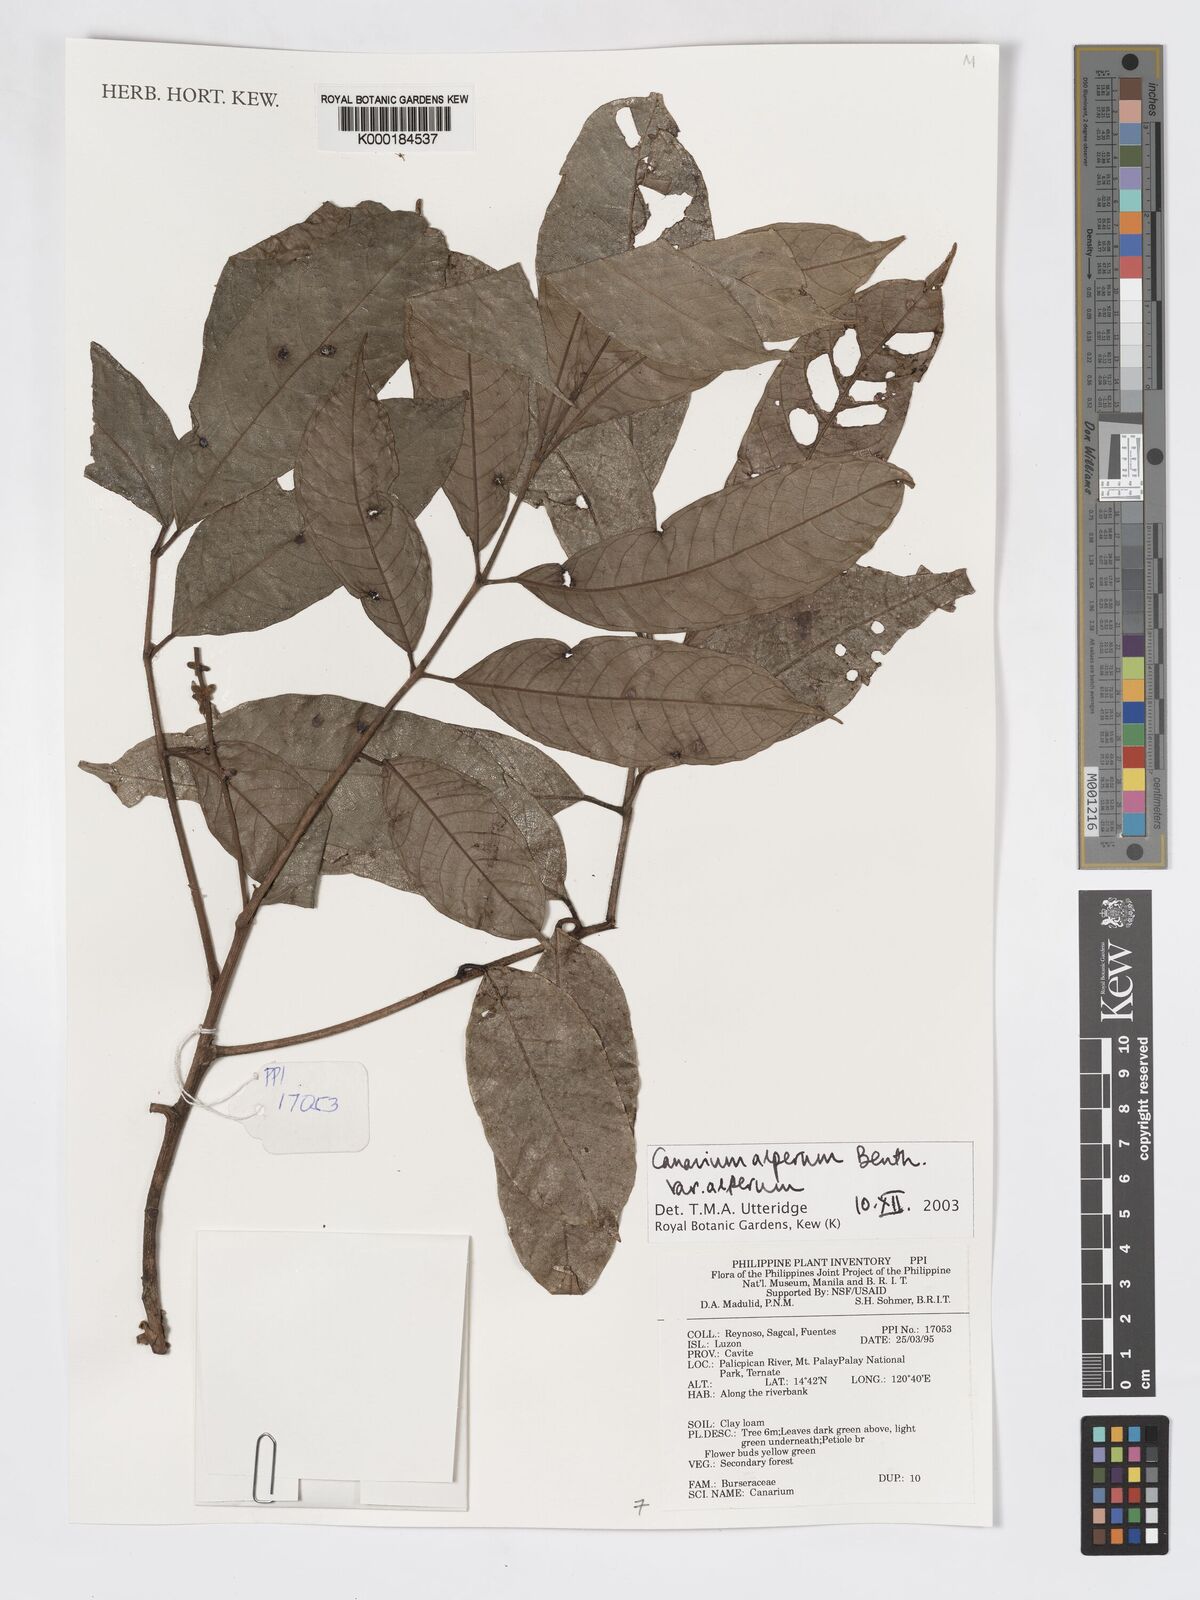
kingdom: Plantae
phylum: Tracheophyta
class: Magnoliopsida
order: Sapindales
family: Burseraceae
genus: Canarium
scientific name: Canarium asperum
